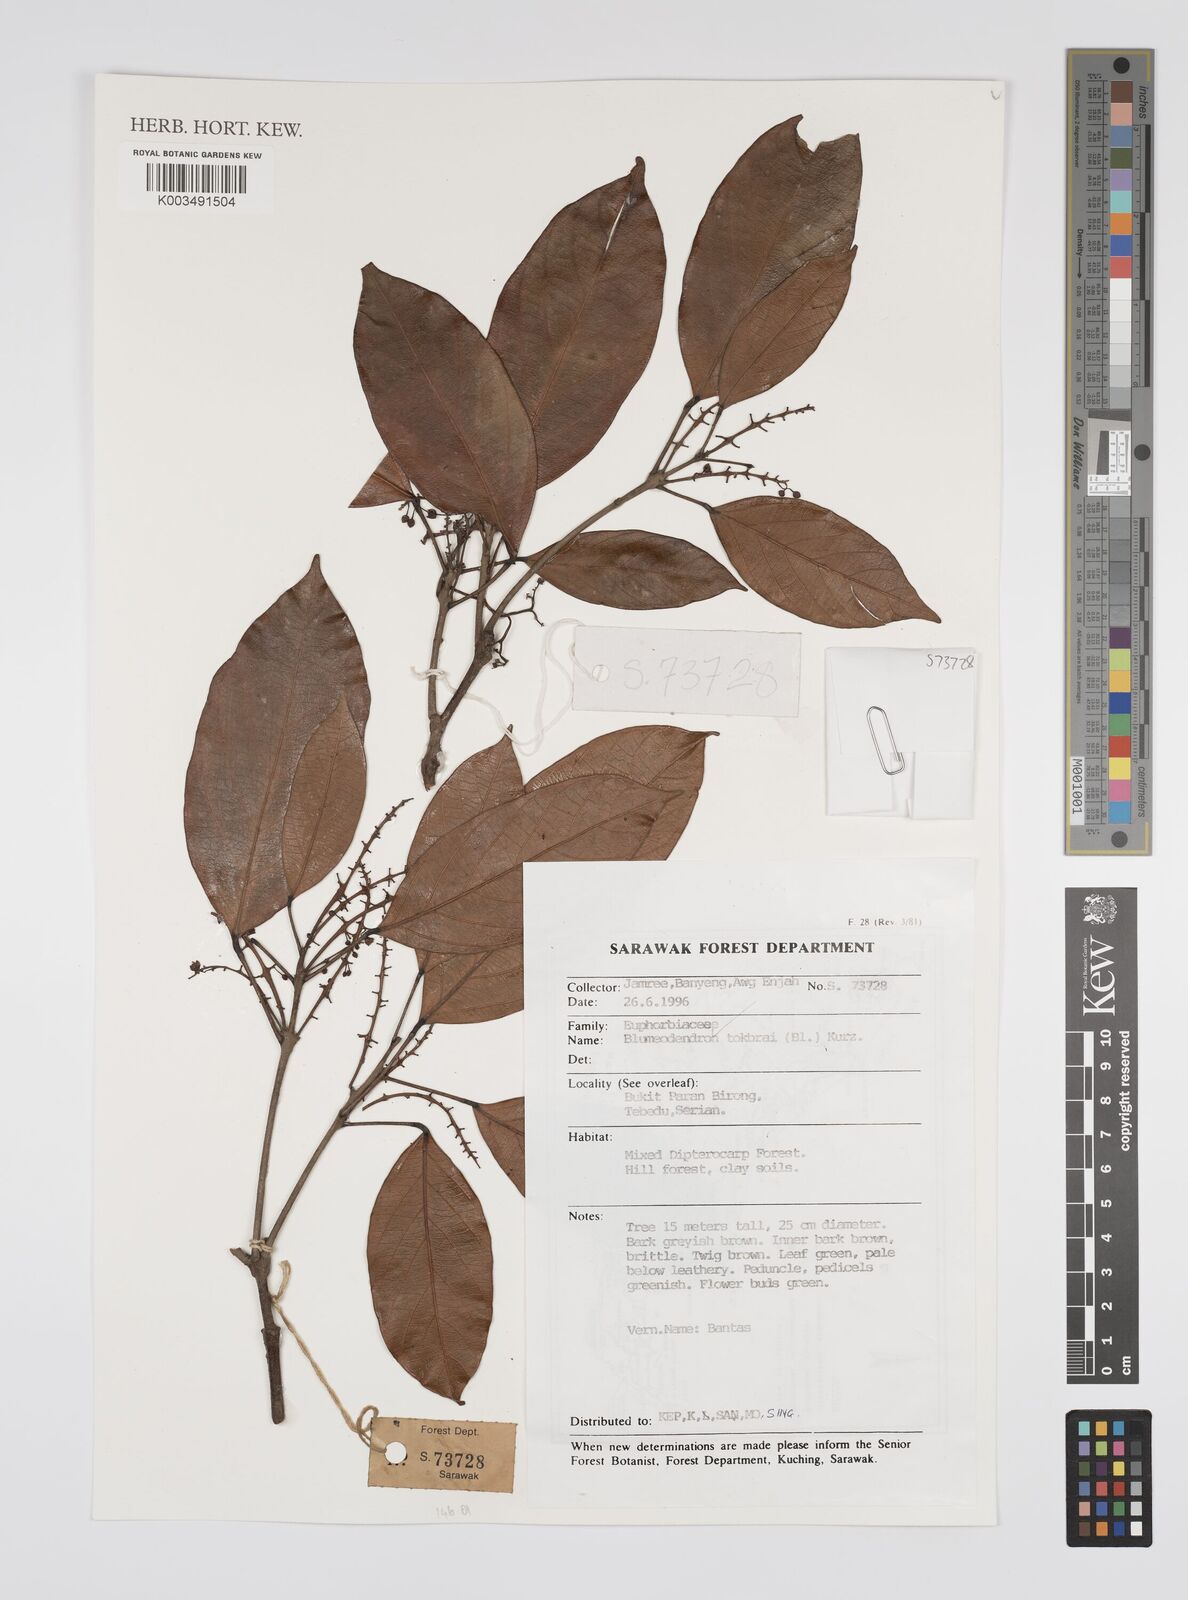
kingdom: Plantae
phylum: Tracheophyta
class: Magnoliopsida
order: Malpighiales
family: Euphorbiaceae
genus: Blumeodendron
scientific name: Blumeodendron tokbrai
